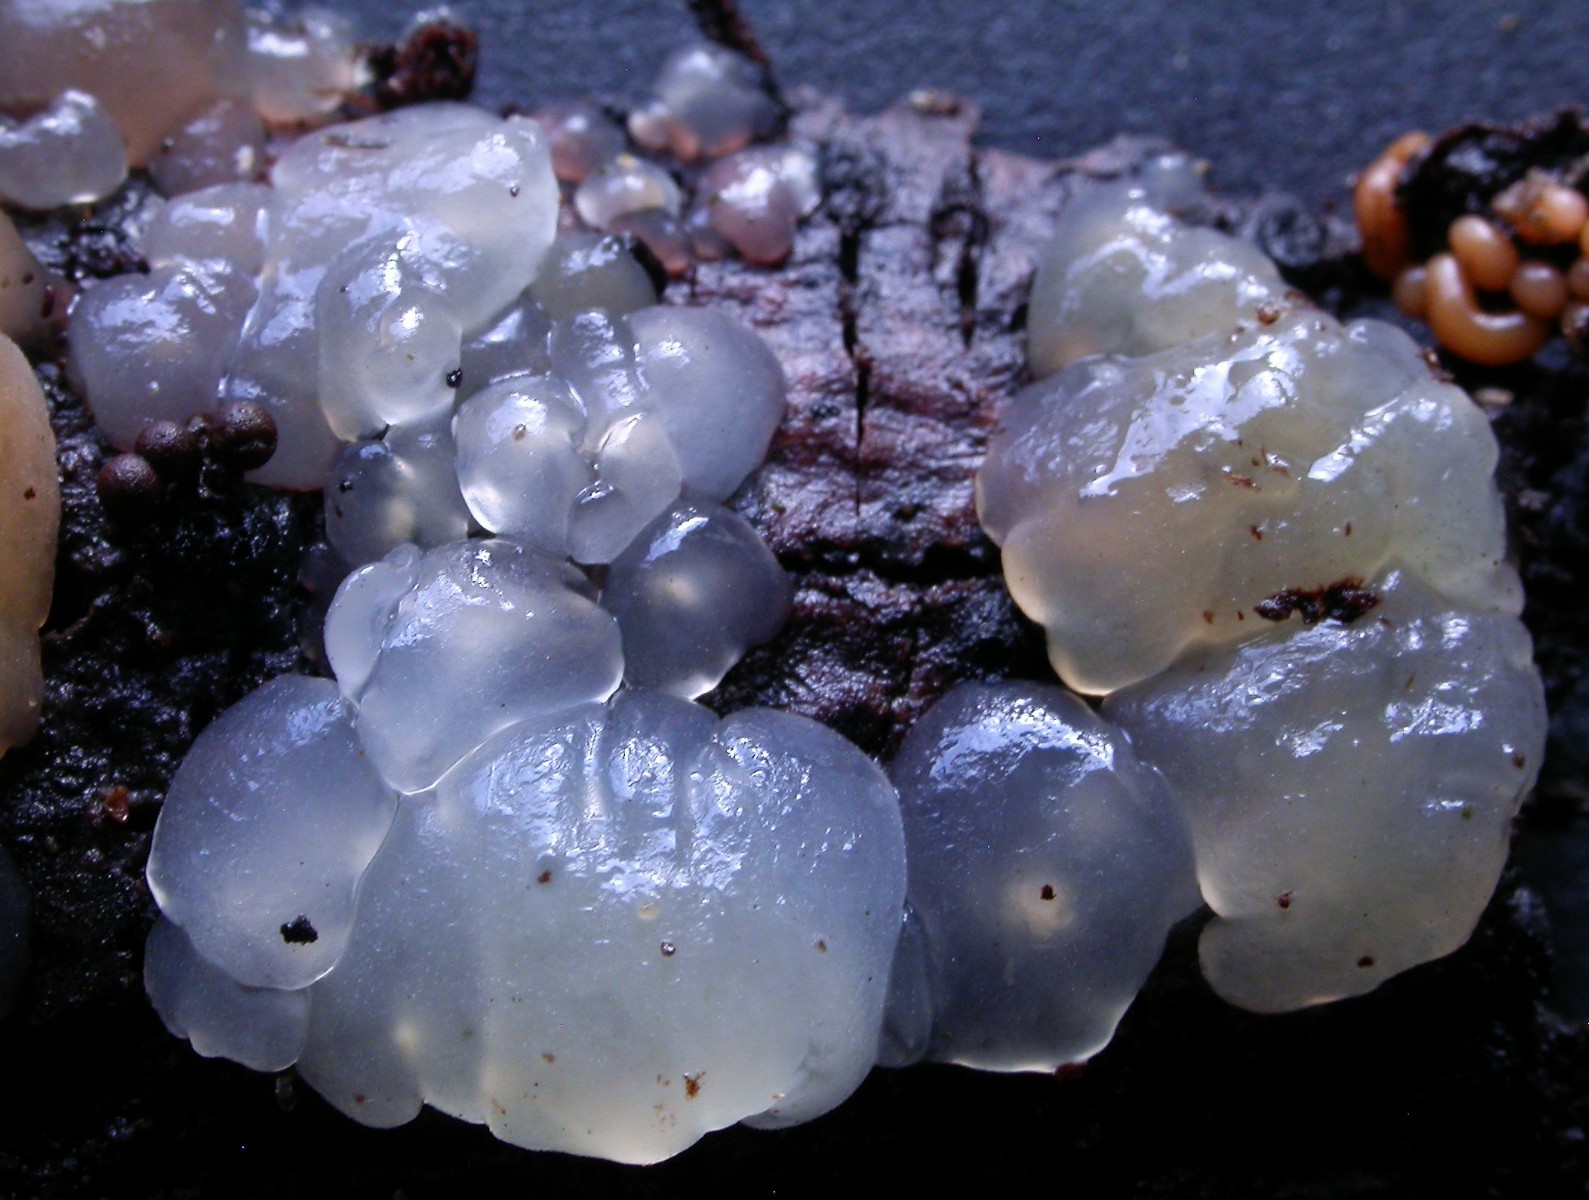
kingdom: Fungi
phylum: Basidiomycota
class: Agaricomycetes
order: Auriculariales
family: Hyaloriaceae
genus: Myxarium
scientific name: Myxarium nucleatum
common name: klar bævretop
